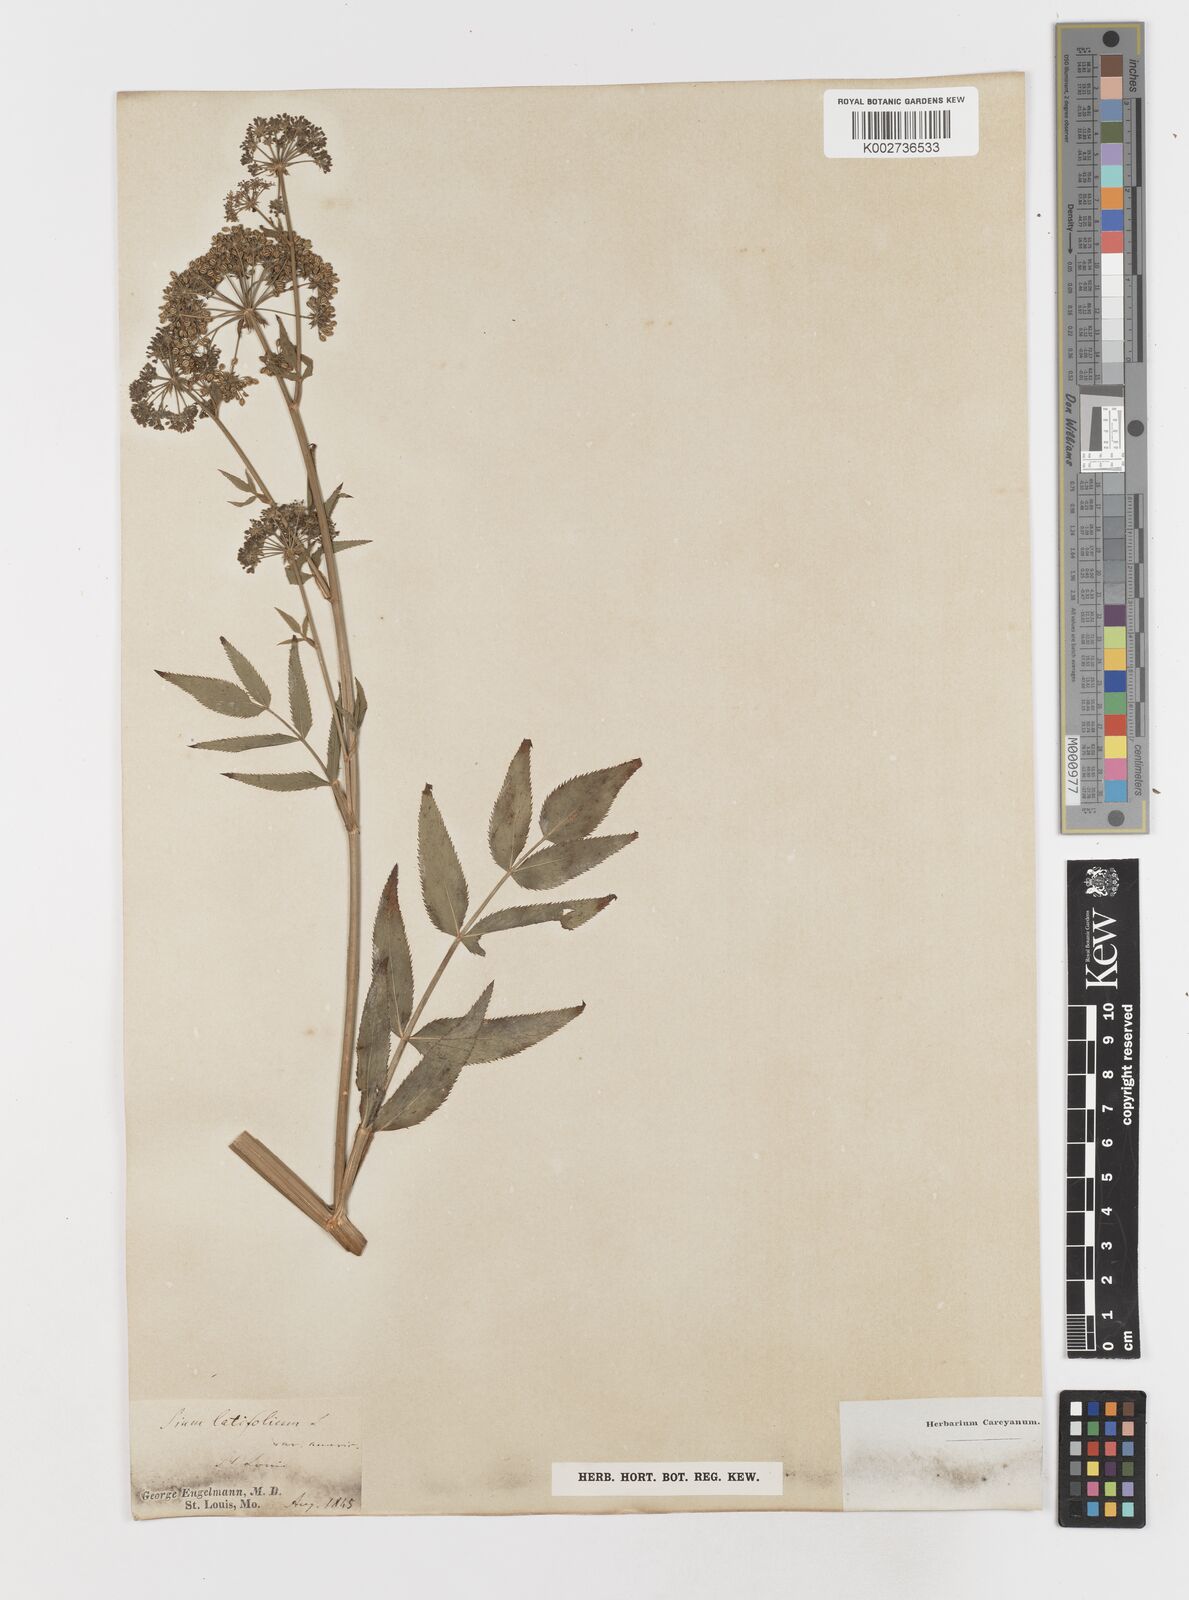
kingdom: Plantae
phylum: Tracheophyta
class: Magnoliopsida
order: Apiales
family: Apiaceae
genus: Sium
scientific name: Sium suave
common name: Hemlock water-parsnip
